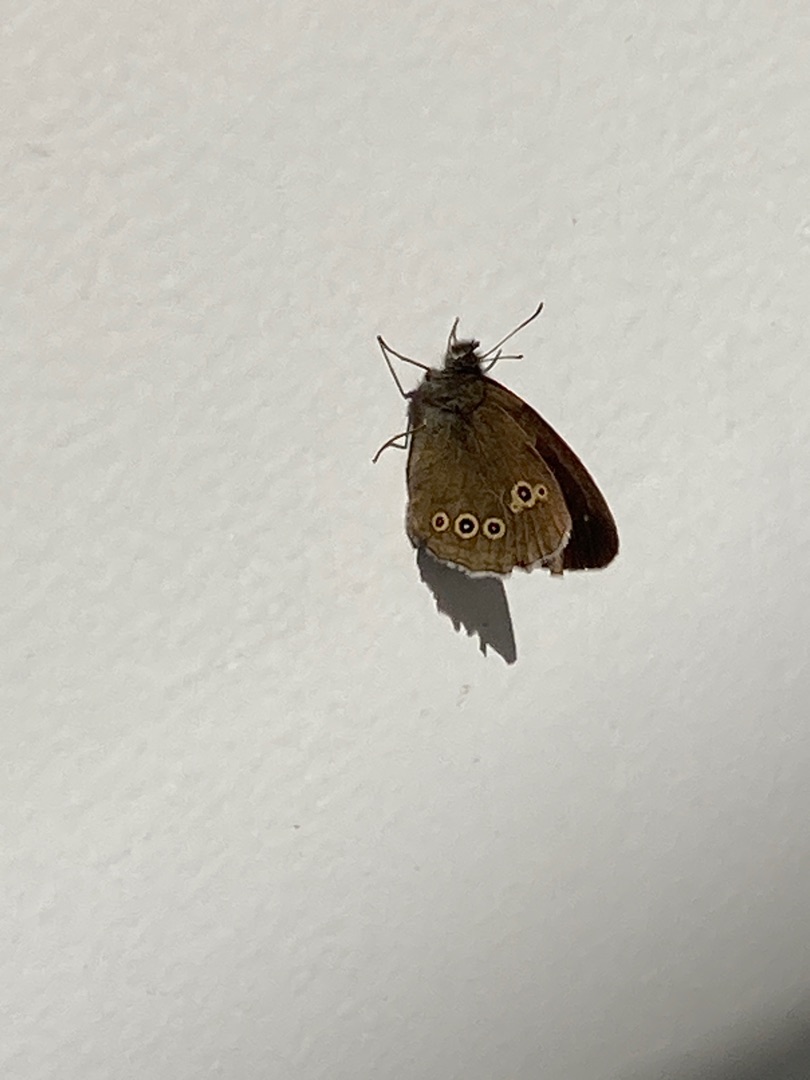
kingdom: Animalia
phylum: Arthropoda
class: Insecta
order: Lepidoptera
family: Nymphalidae
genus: Aphantopus
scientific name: Aphantopus hyperantus
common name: Engrandøje
